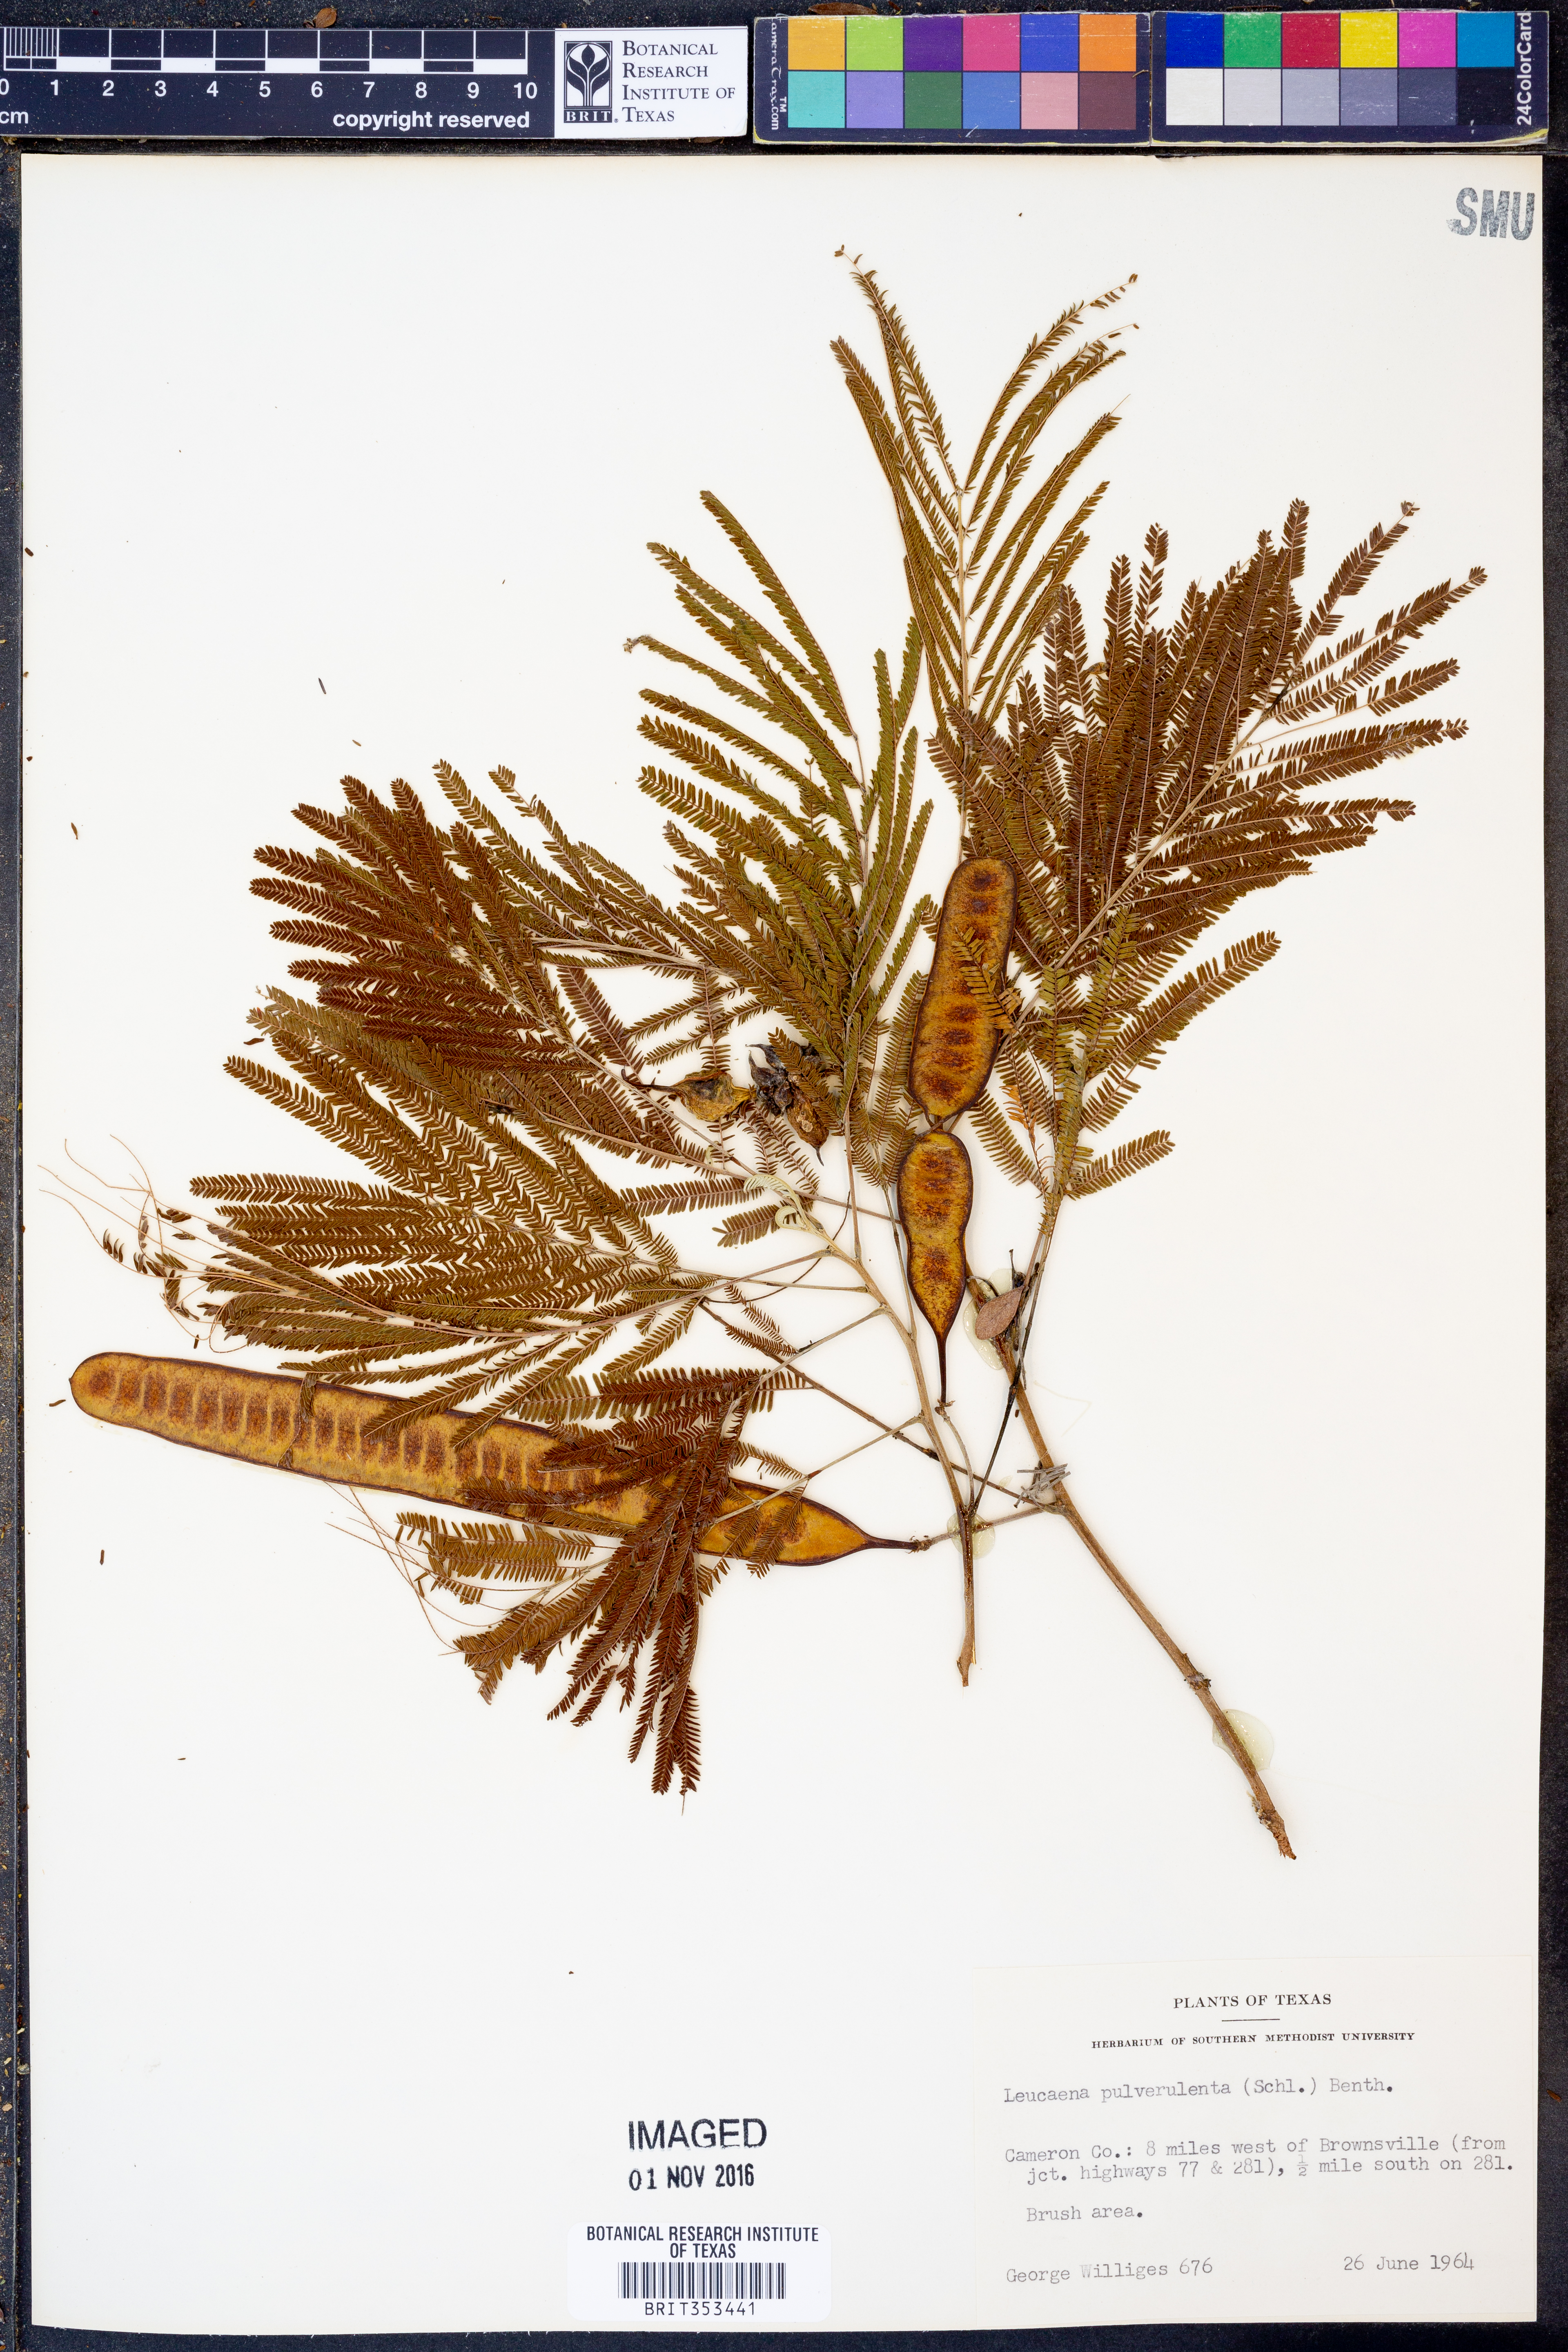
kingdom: Plantae
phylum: Tracheophyta
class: Magnoliopsida
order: Fabales
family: Fabaceae
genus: Leucaena
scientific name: Leucaena pulverulenta
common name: Great leadtree
